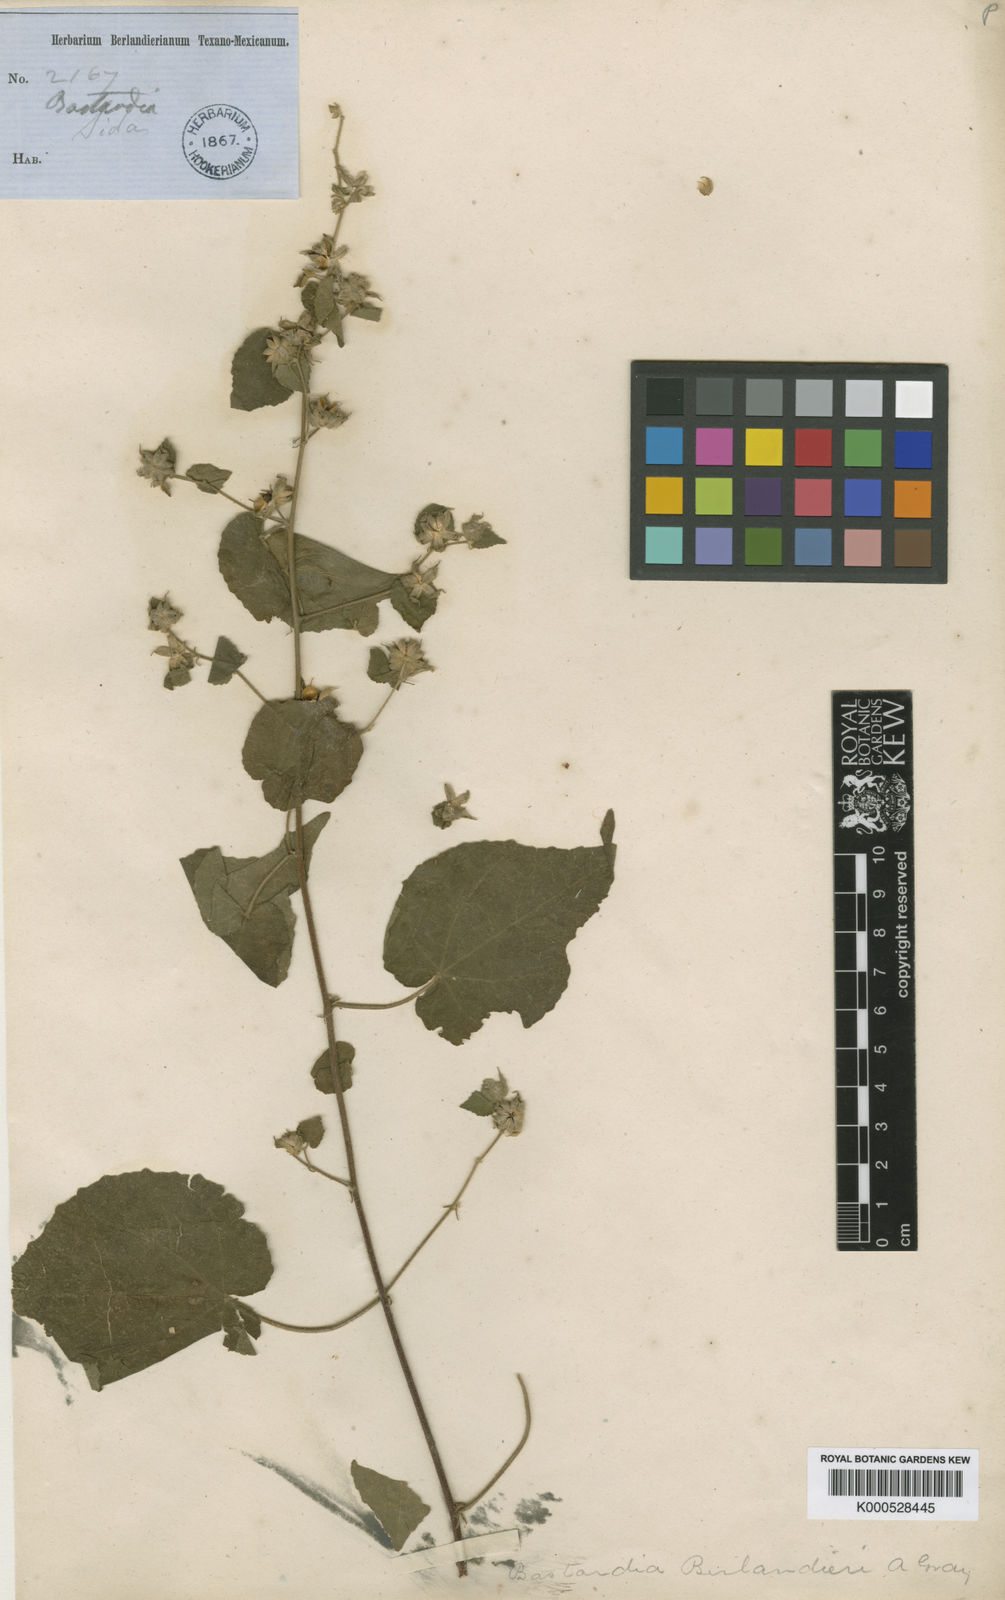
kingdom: Plantae
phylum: Tracheophyta
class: Magnoliopsida
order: Malvales
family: Malvaceae
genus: Abutilon
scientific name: Abutilon bivalve
